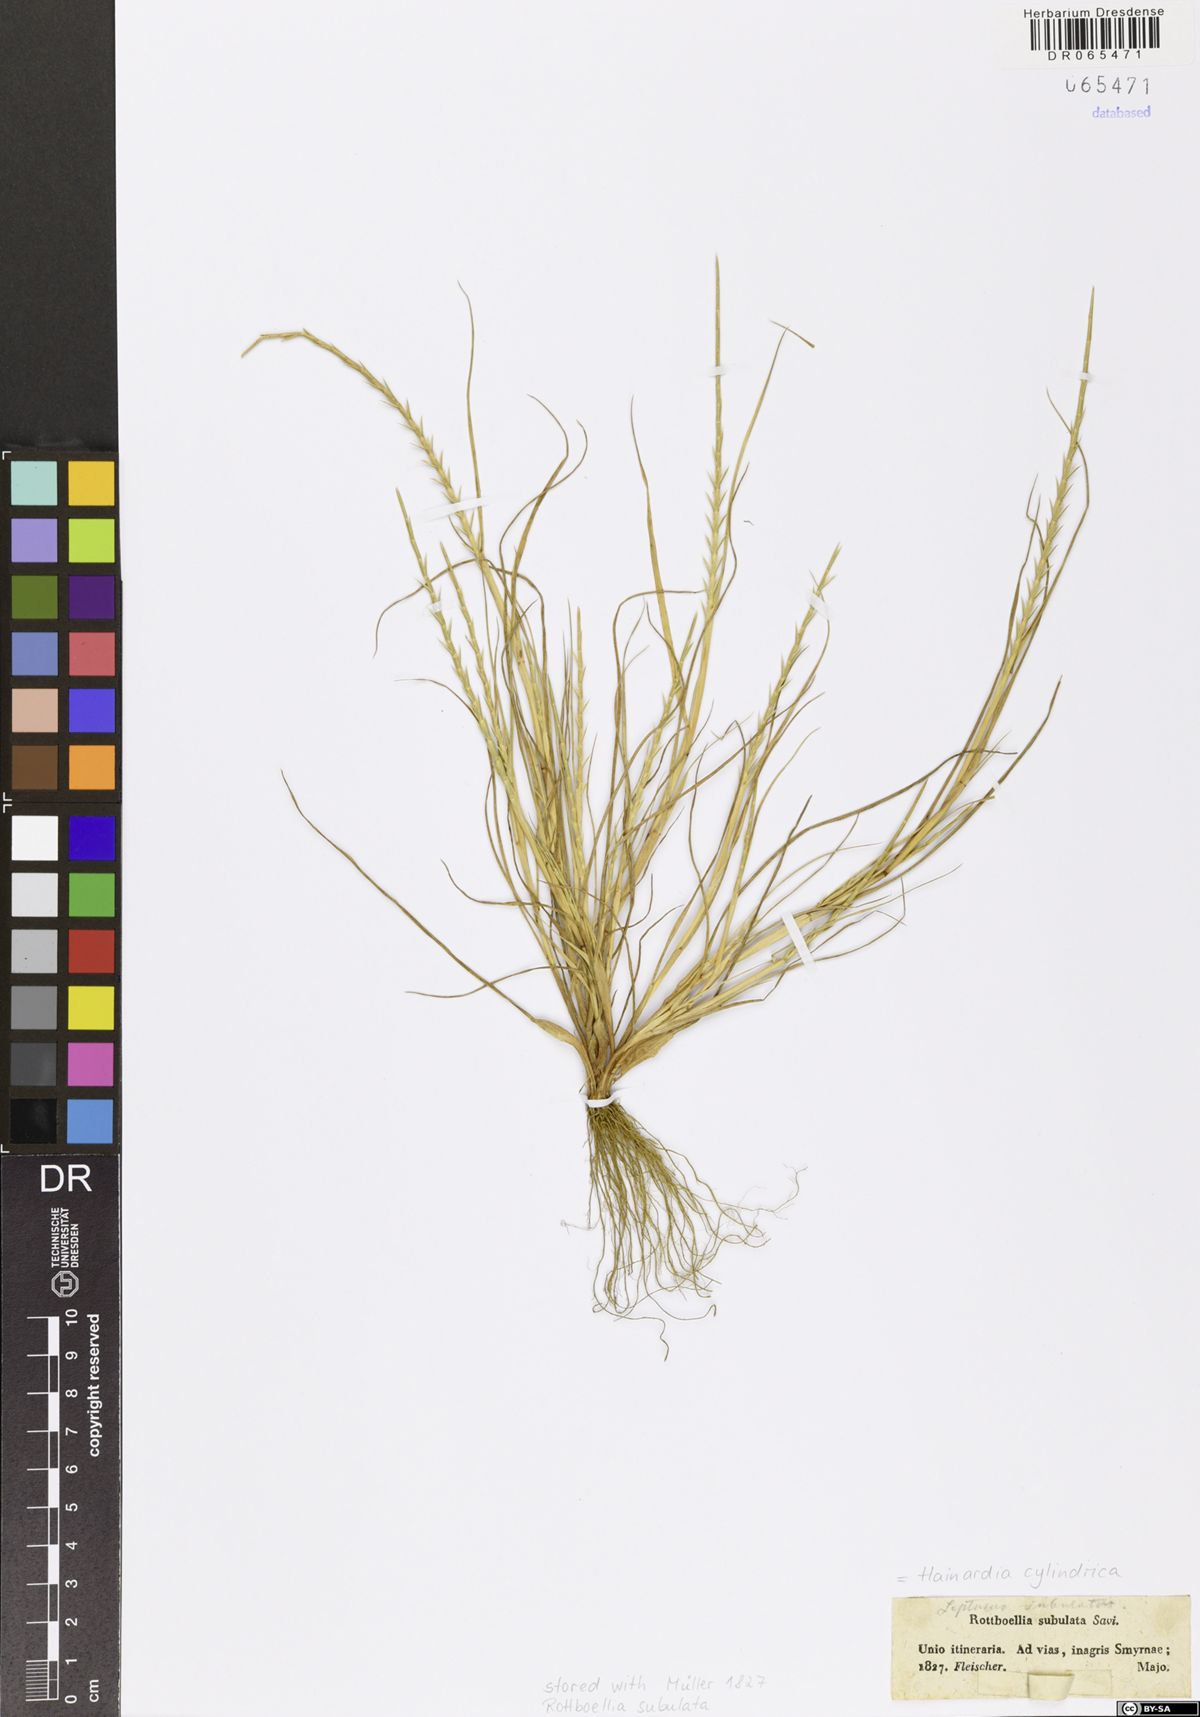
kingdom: Plantae
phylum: Tracheophyta
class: Liliopsida
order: Poales
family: Poaceae
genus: Parapholis
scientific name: Parapholis cylindrica
